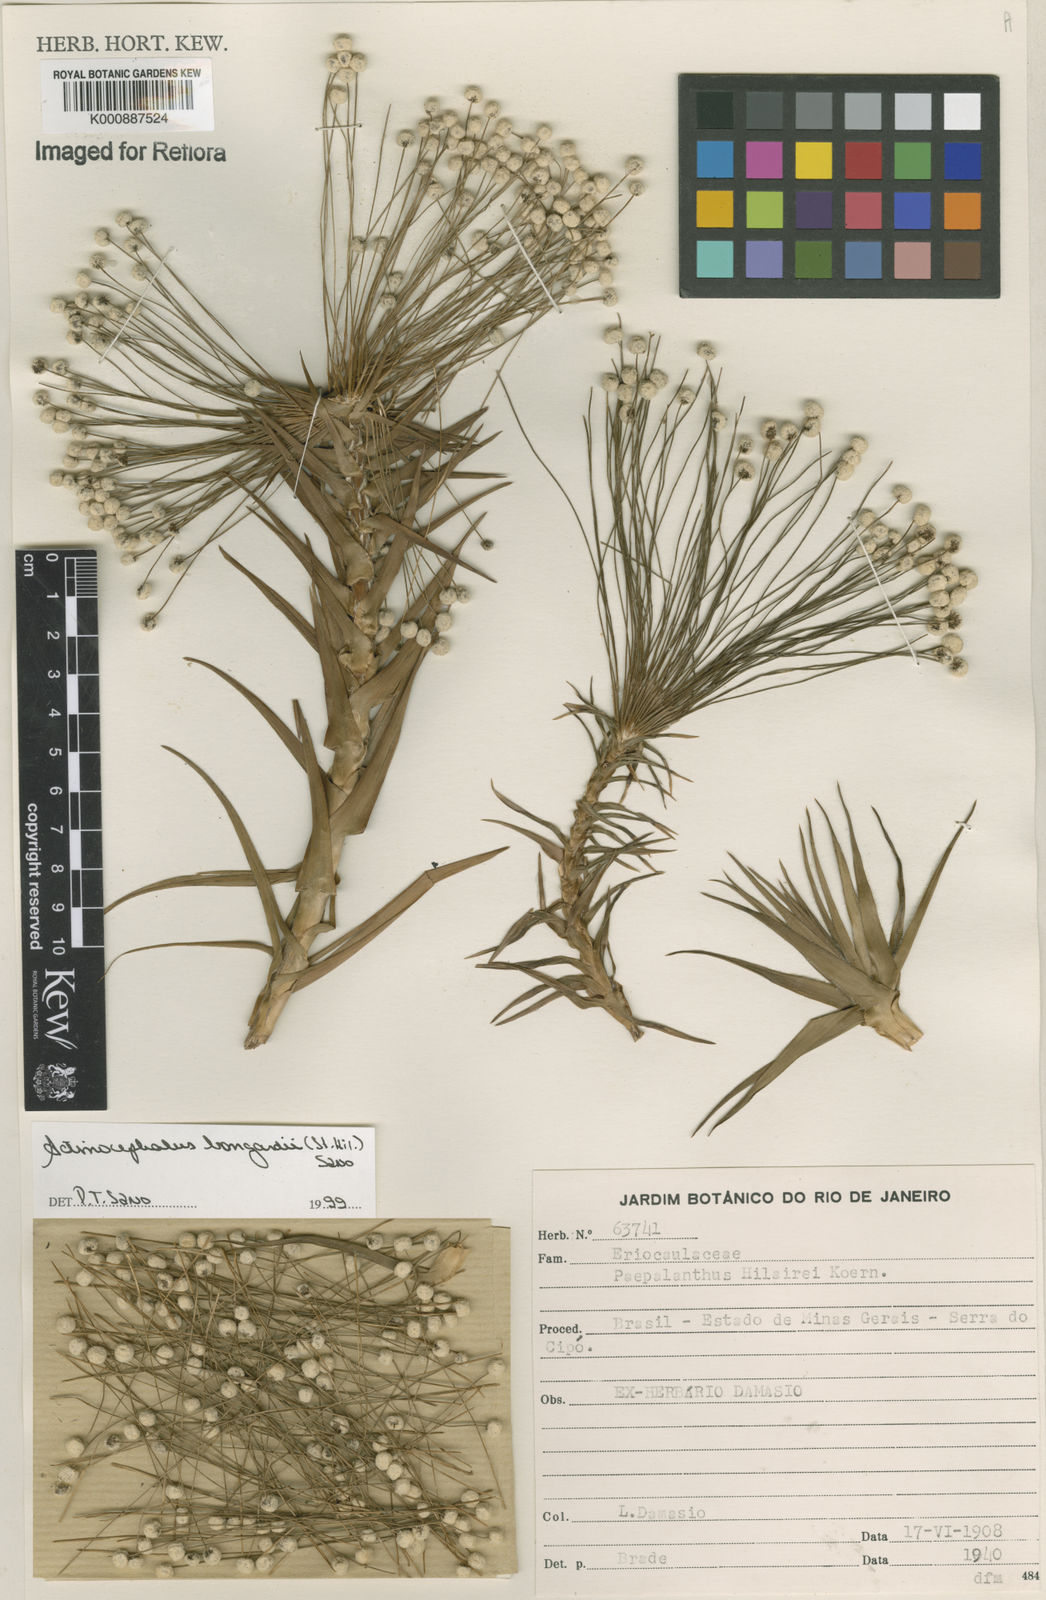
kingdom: Plantae
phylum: Tracheophyta
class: Liliopsida
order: Poales
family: Eriocaulaceae
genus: Paepalanthus
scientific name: Paepalanthus hilairei
